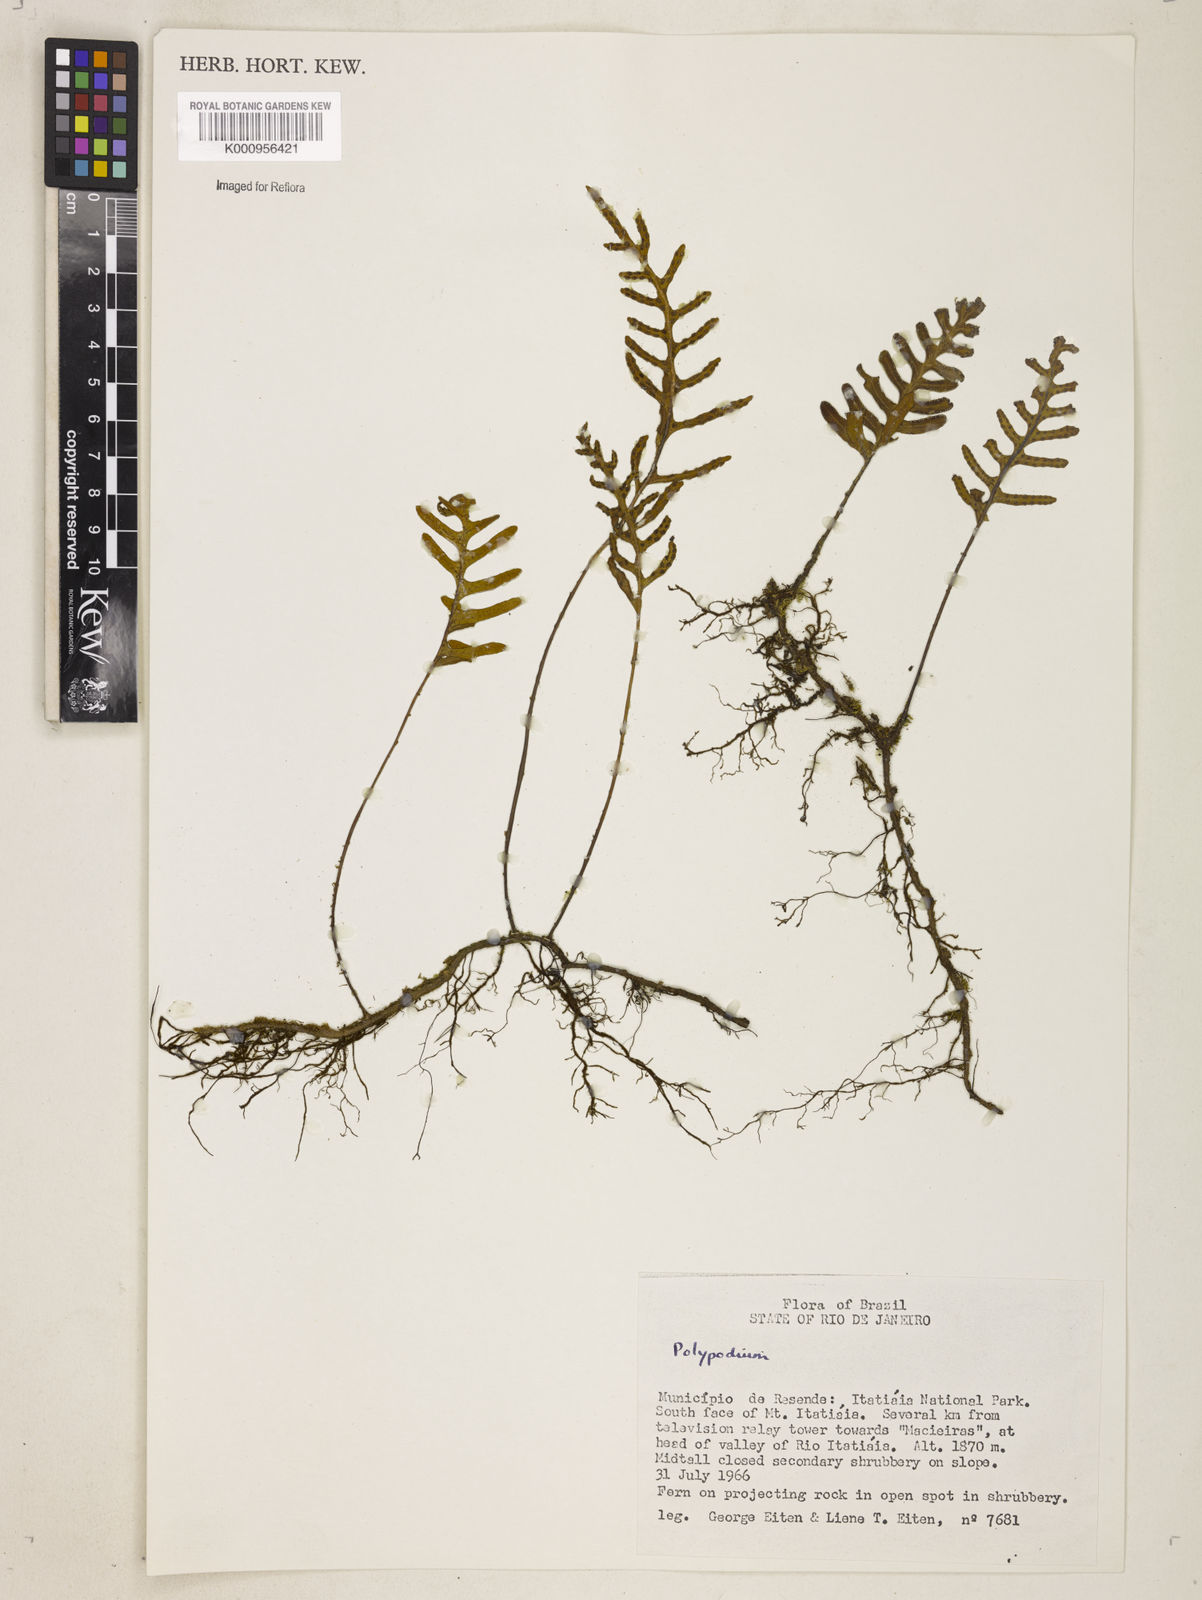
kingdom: Plantae
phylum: Tracheophyta
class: Polypodiopsida
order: Polypodiales
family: Polypodiaceae
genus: Polypodium
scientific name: Polypodium
